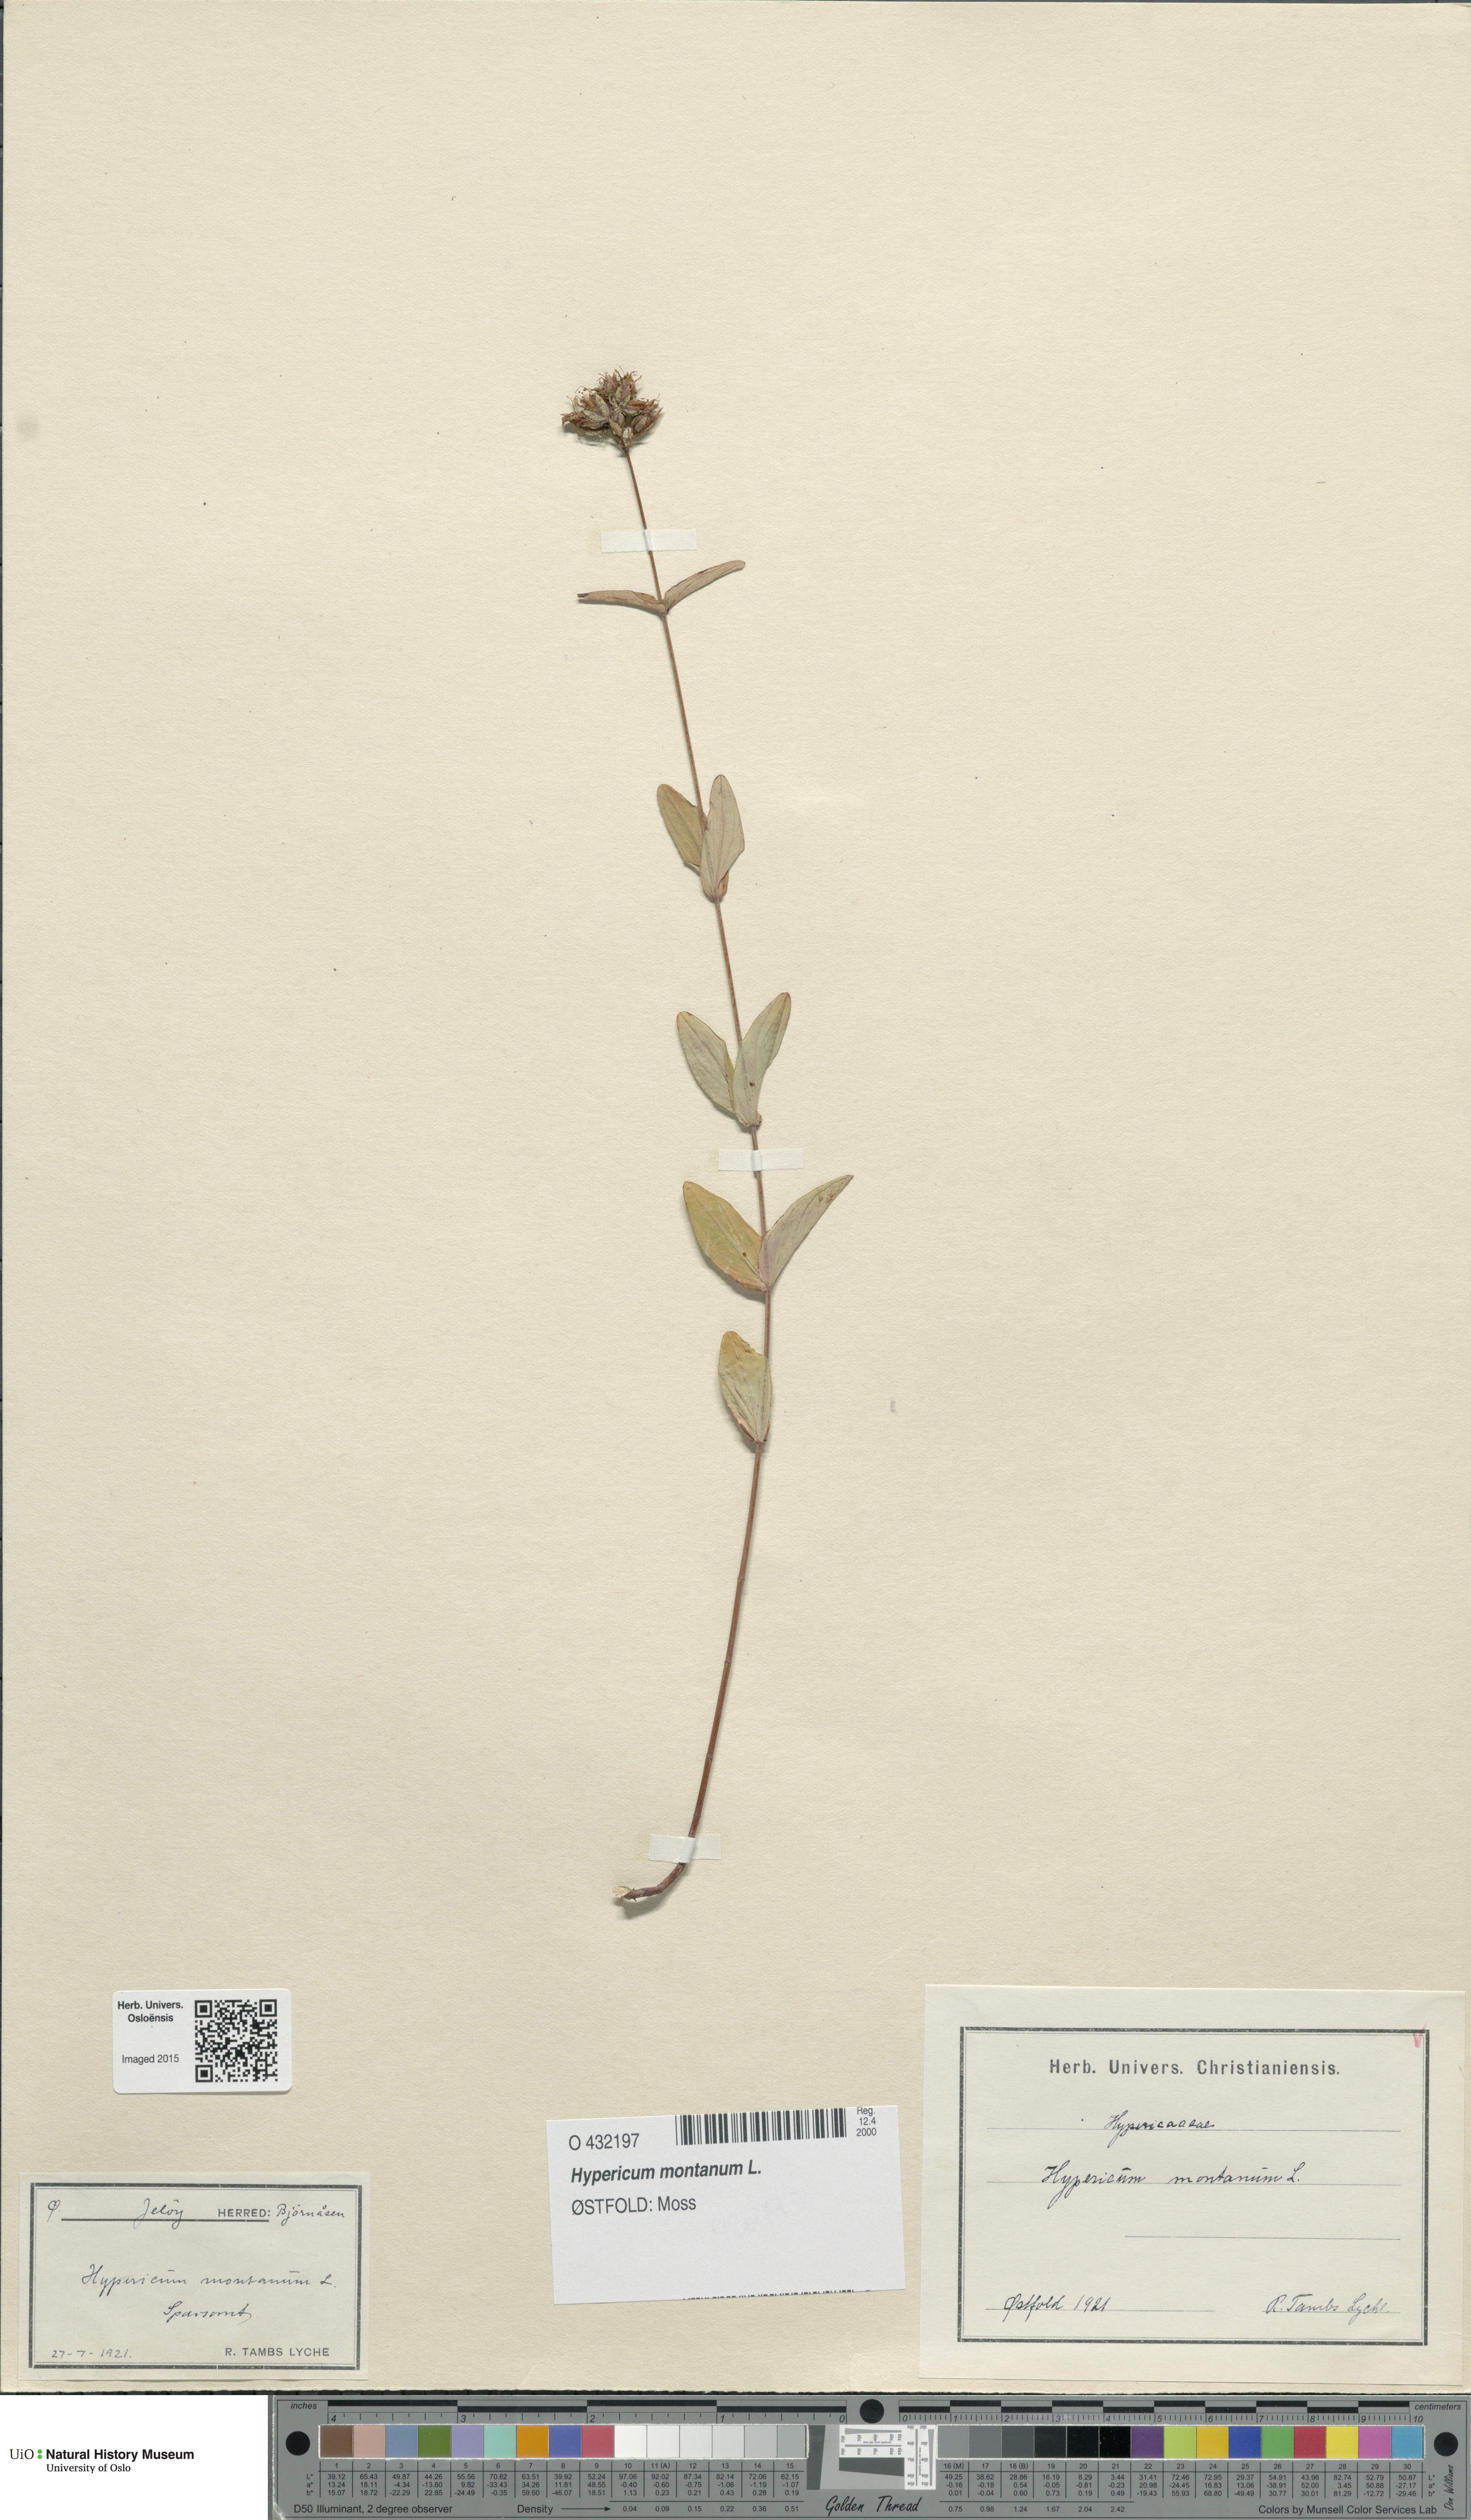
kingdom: Plantae
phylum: Tracheophyta
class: Magnoliopsida
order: Malpighiales
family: Hypericaceae
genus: Hypericum
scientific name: Hypericum montanum
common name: Pale st. john's-wort
